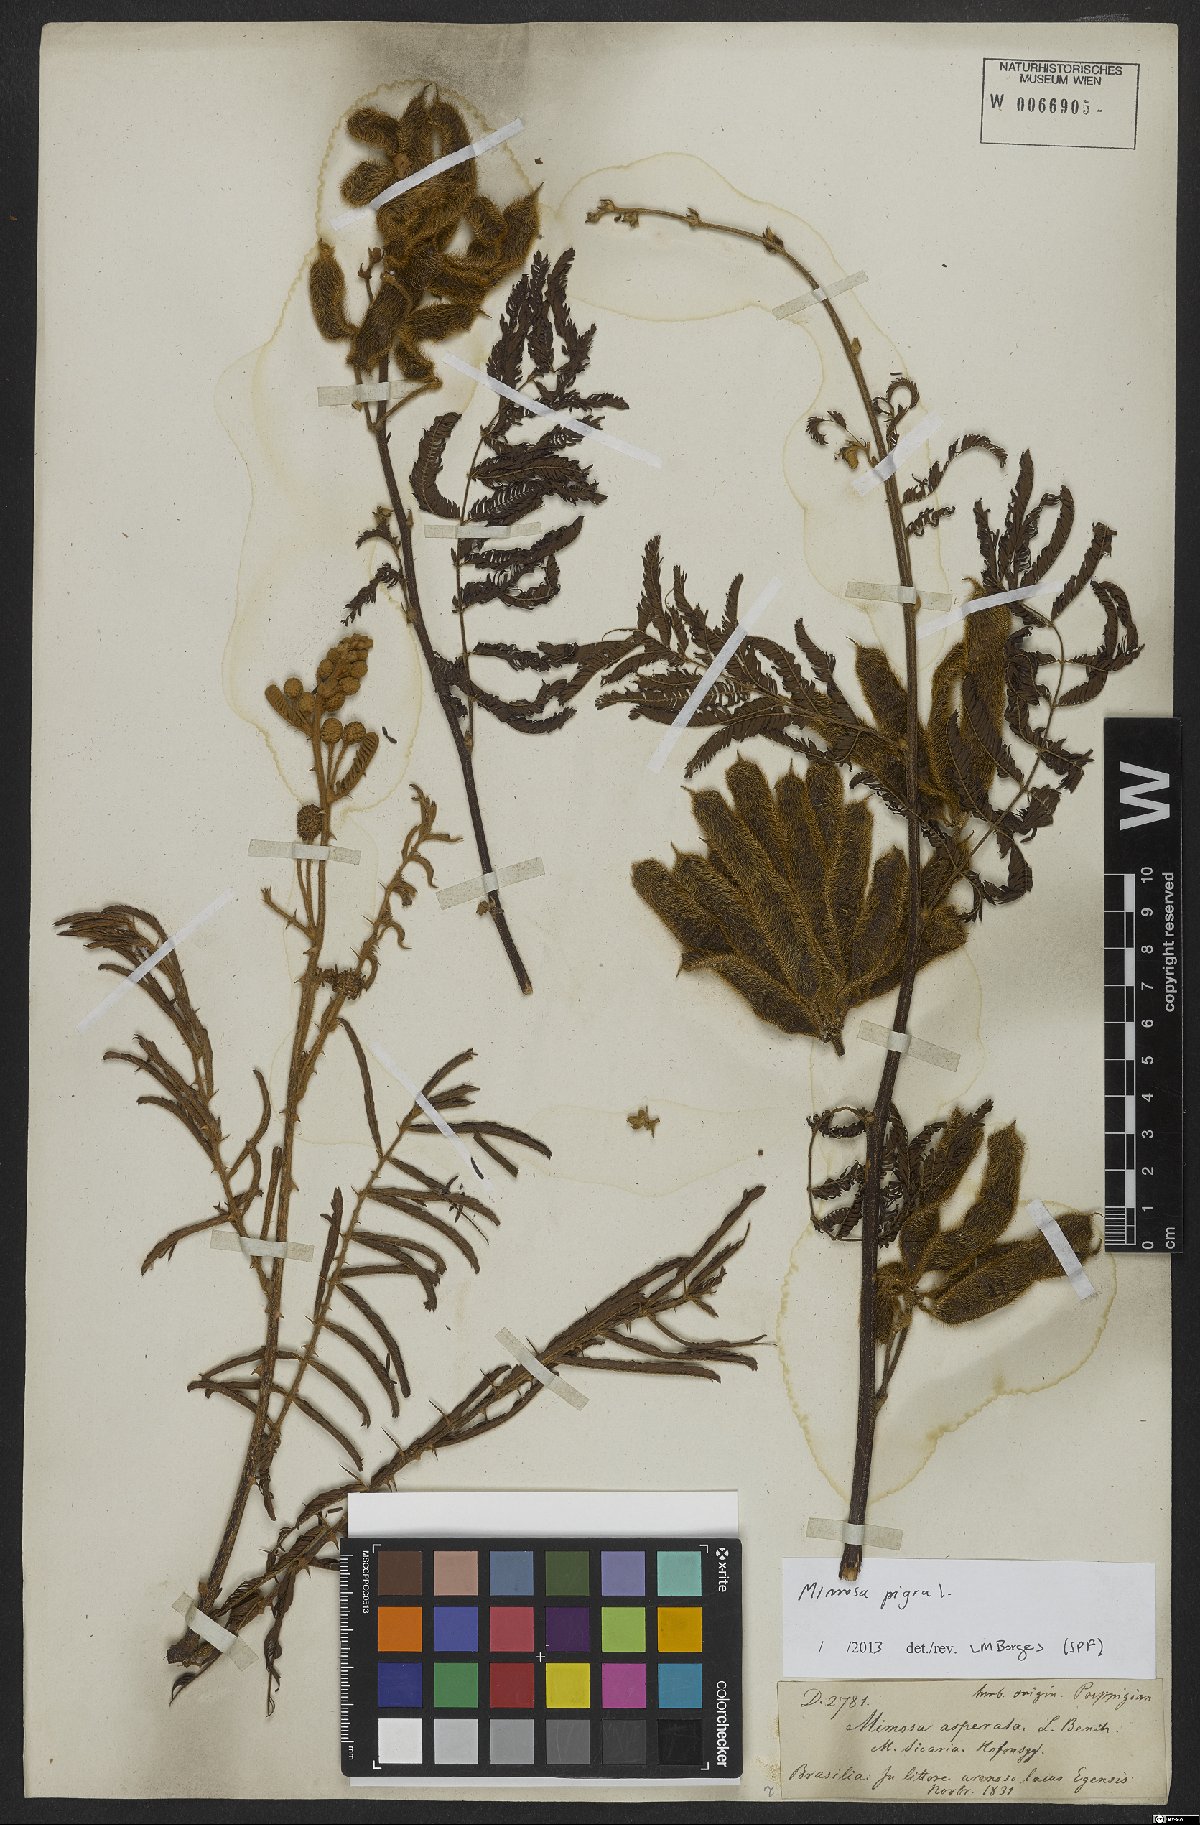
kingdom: Plantae
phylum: Tracheophyta
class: Magnoliopsida
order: Fabales
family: Fabaceae
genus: Mimosa
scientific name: Mimosa pigra
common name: Black mimosa
